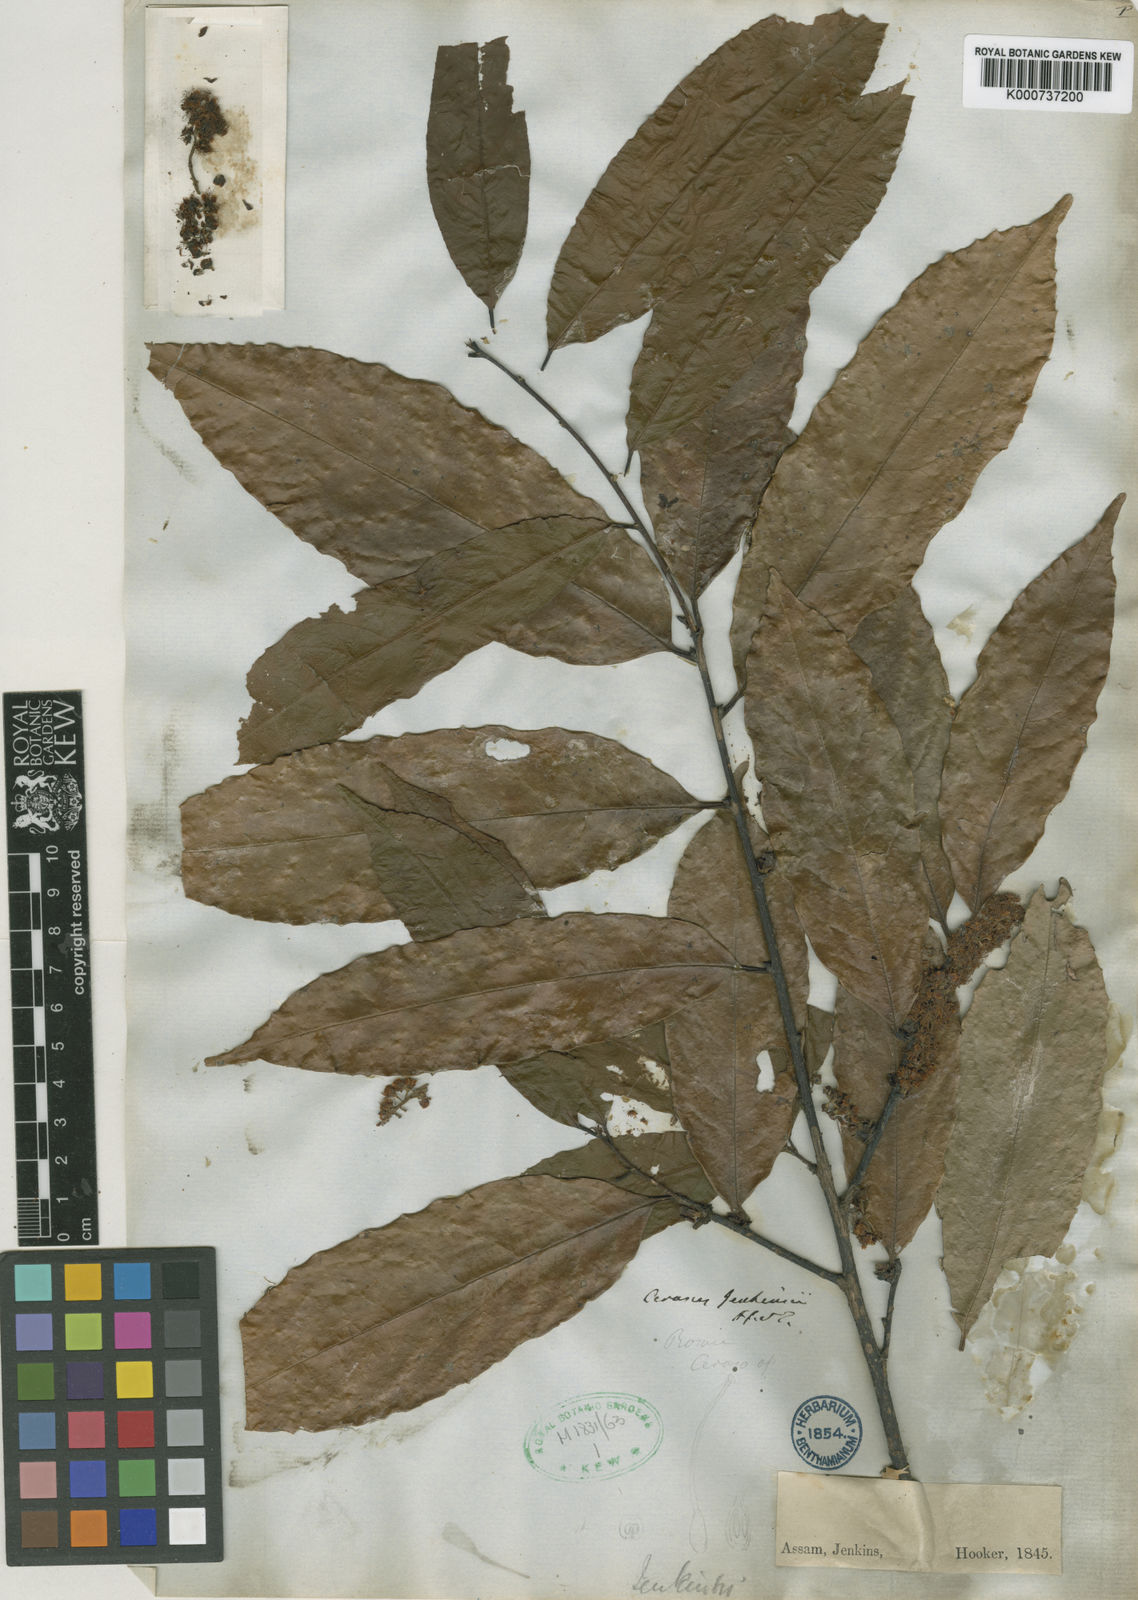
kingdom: Plantae
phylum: Tracheophyta
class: Magnoliopsida
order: Rosales
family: Rosaceae
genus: Prunus
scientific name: Prunus jenkinsii
